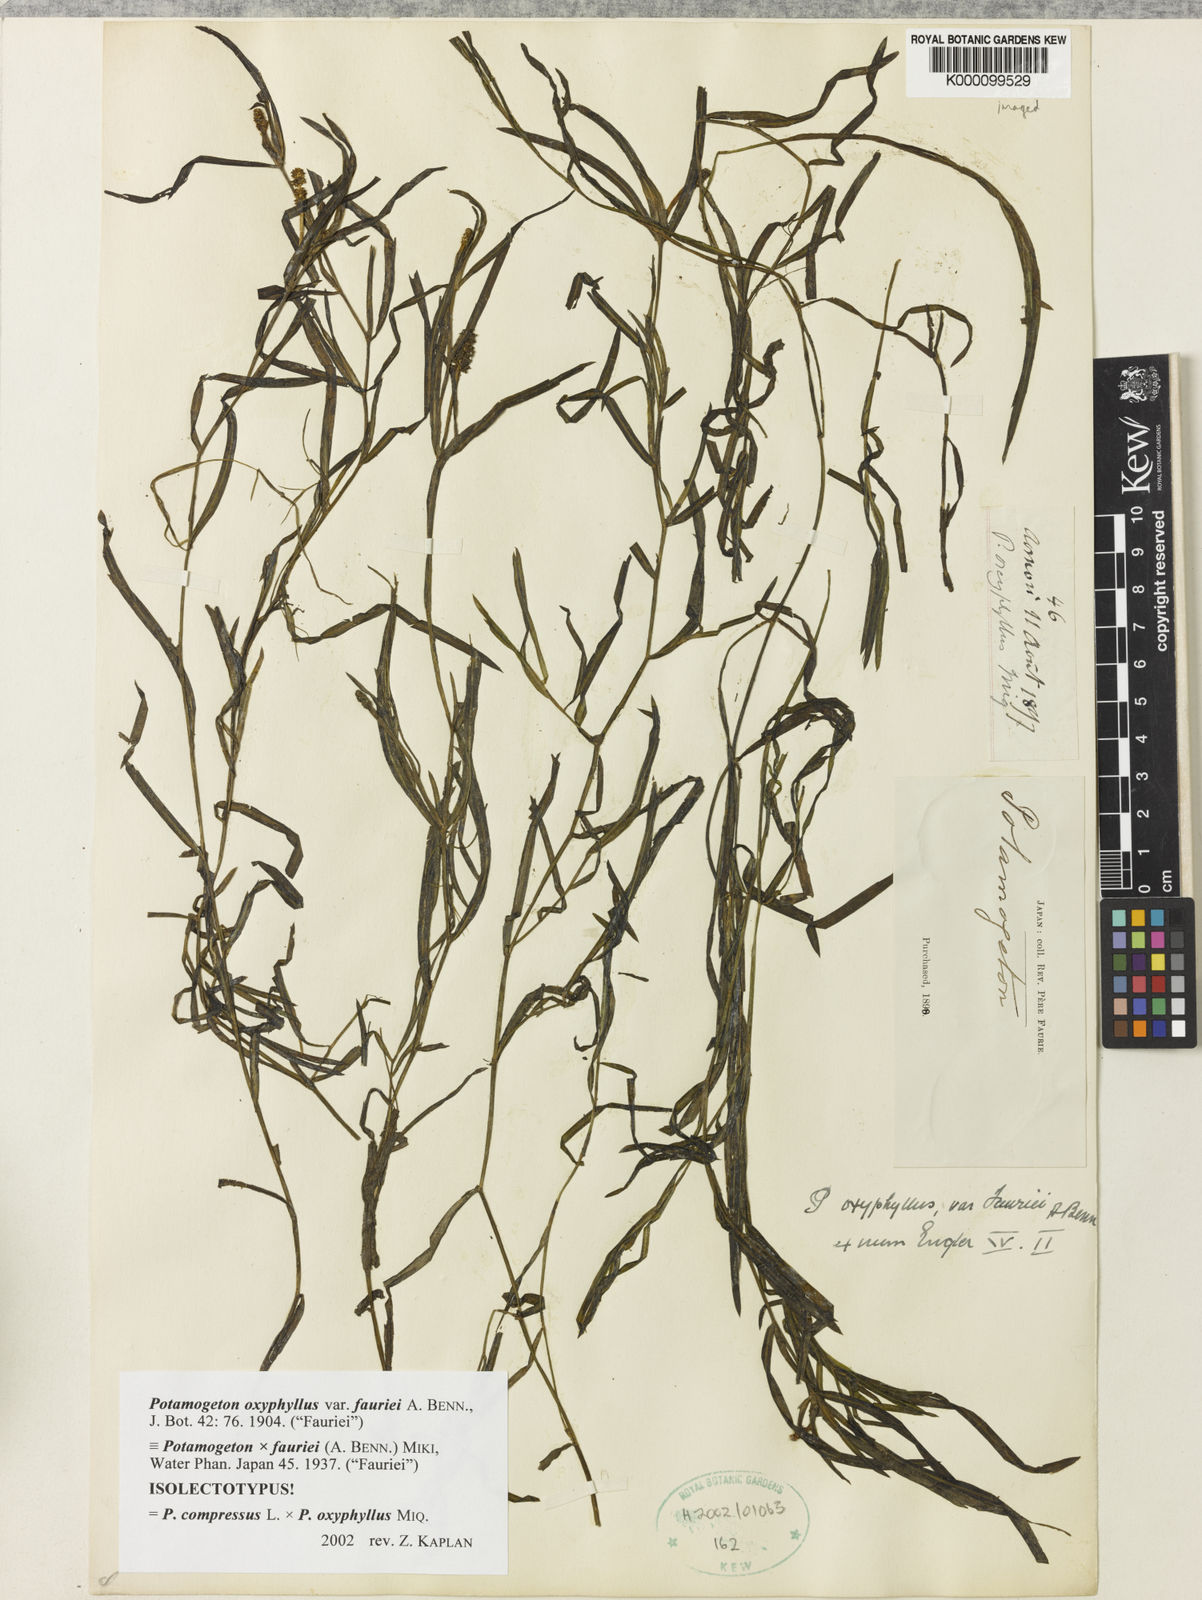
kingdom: Plantae
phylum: Tracheophyta
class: Liliopsida
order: Alismatales
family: Potamogetonaceae
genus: Potamogeton
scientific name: Potamogeton kamogawaensis
